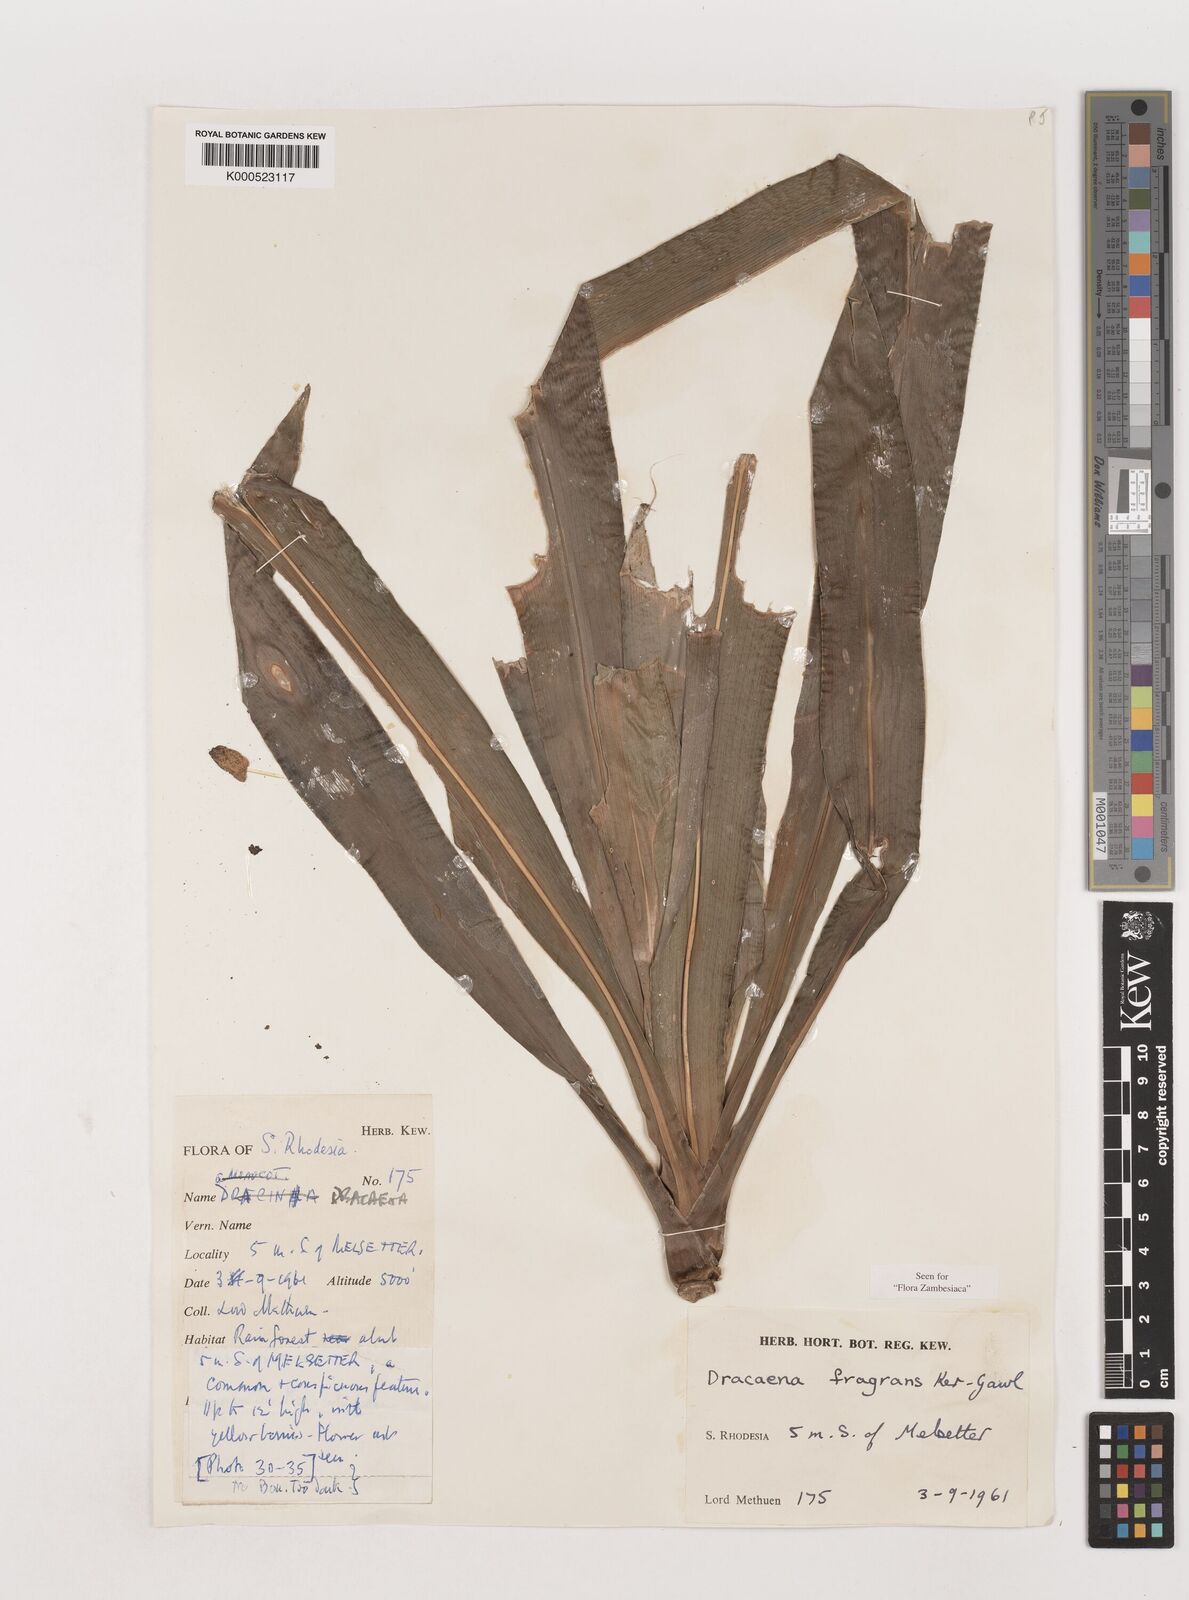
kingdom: Plantae
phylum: Tracheophyta
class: Liliopsida
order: Asparagales
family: Asparagaceae
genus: Dracaena
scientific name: Dracaena fragrans
